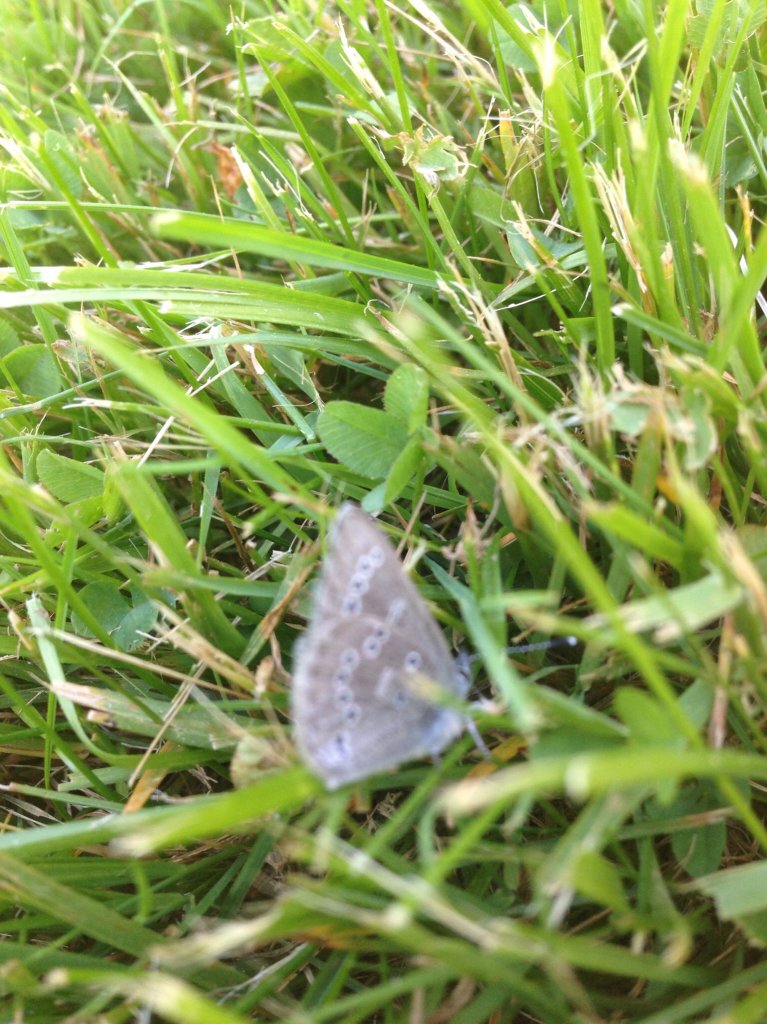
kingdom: Animalia
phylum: Arthropoda
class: Insecta
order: Lepidoptera
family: Lycaenidae
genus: Glaucopsyche
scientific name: Glaucopsyche lygdamus
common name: Silvery Blue
